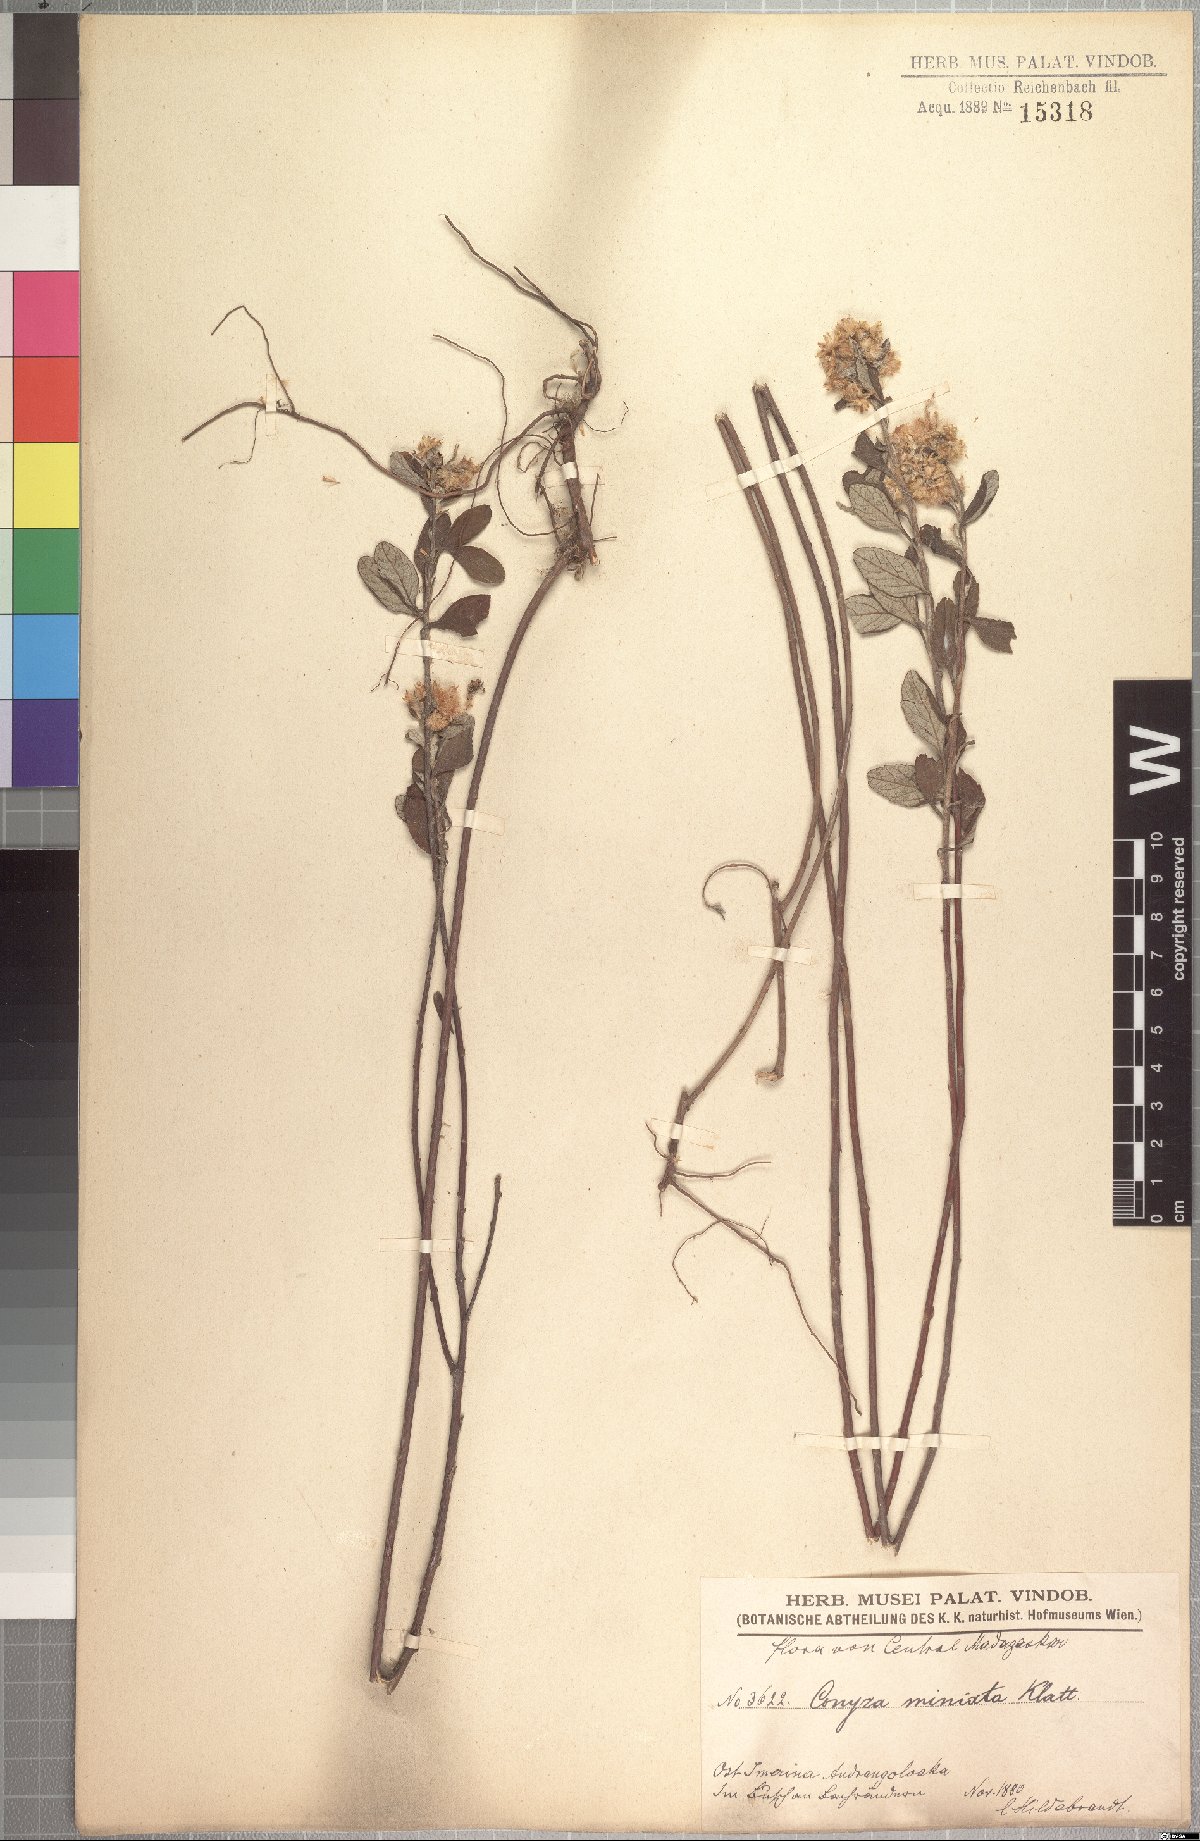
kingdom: Plantae
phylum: Tracheophyta
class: Magnoliopsida
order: Asterales
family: Asteraceae
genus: Psiadia
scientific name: Psiadia leucophylla
